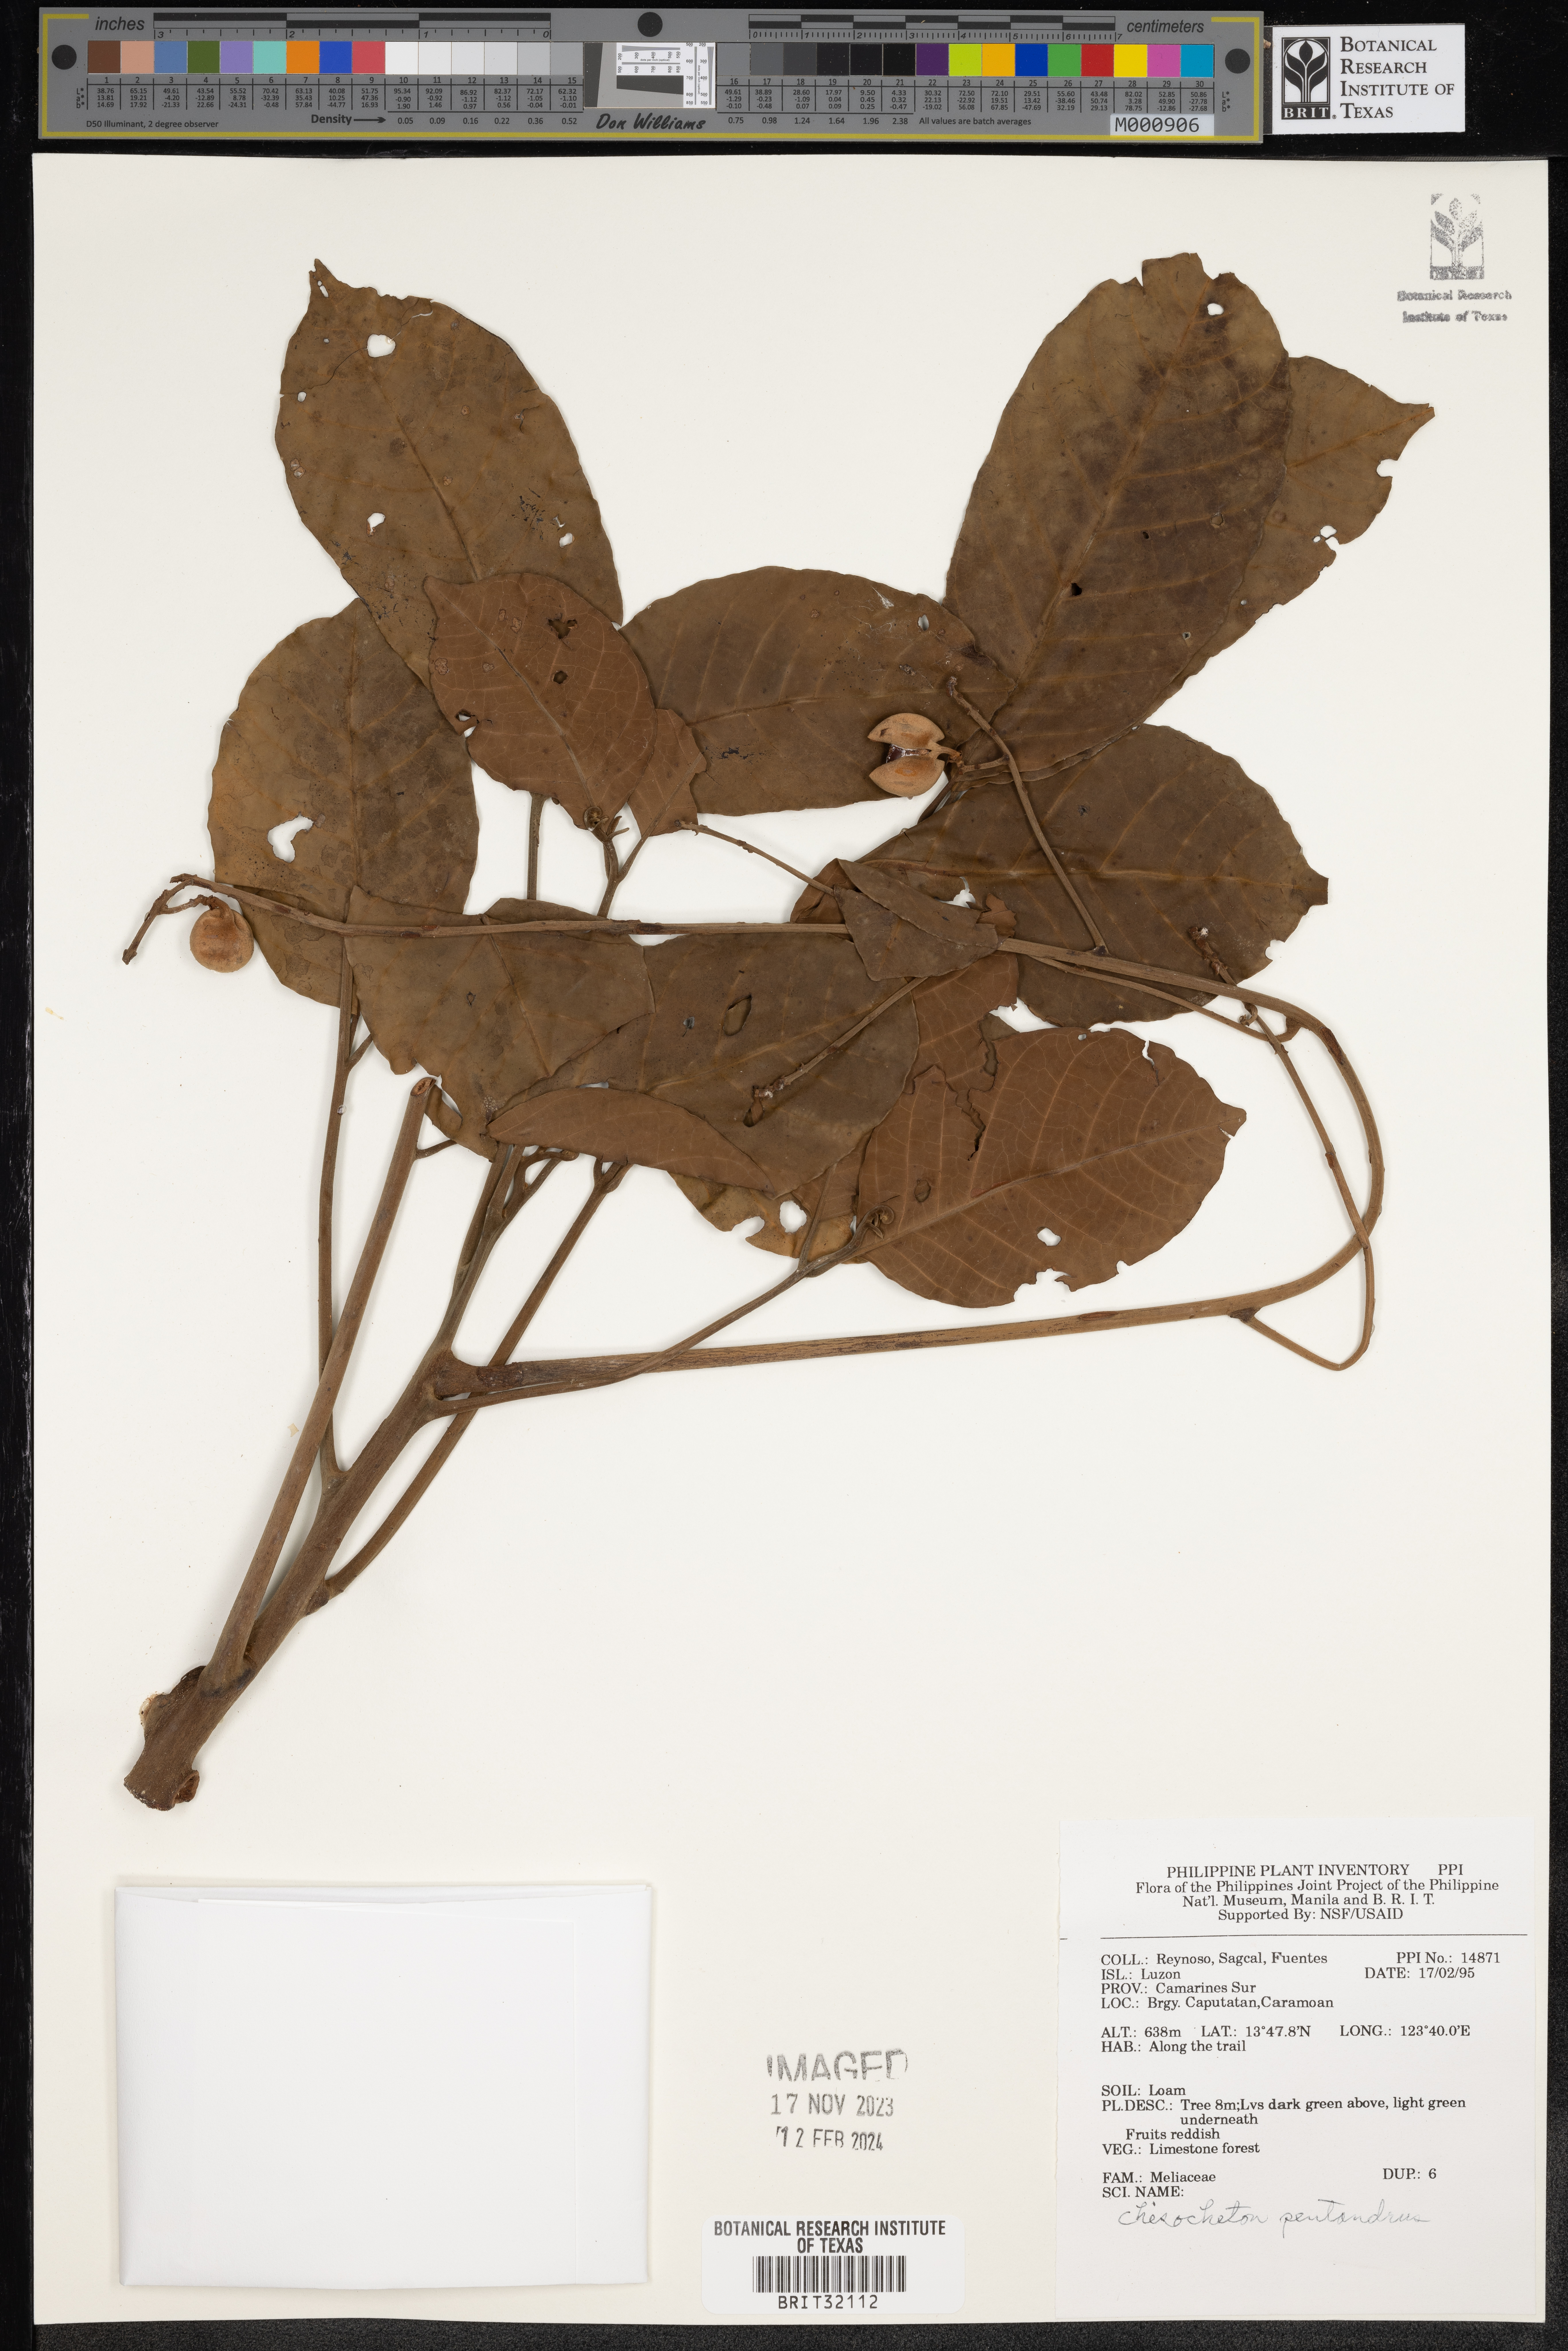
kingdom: Plantae
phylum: Tracheophyta
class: Magnoliopsida
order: Sapindales
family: Meliaceae
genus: Chisocheton
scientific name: Chisocheton pentandrus
